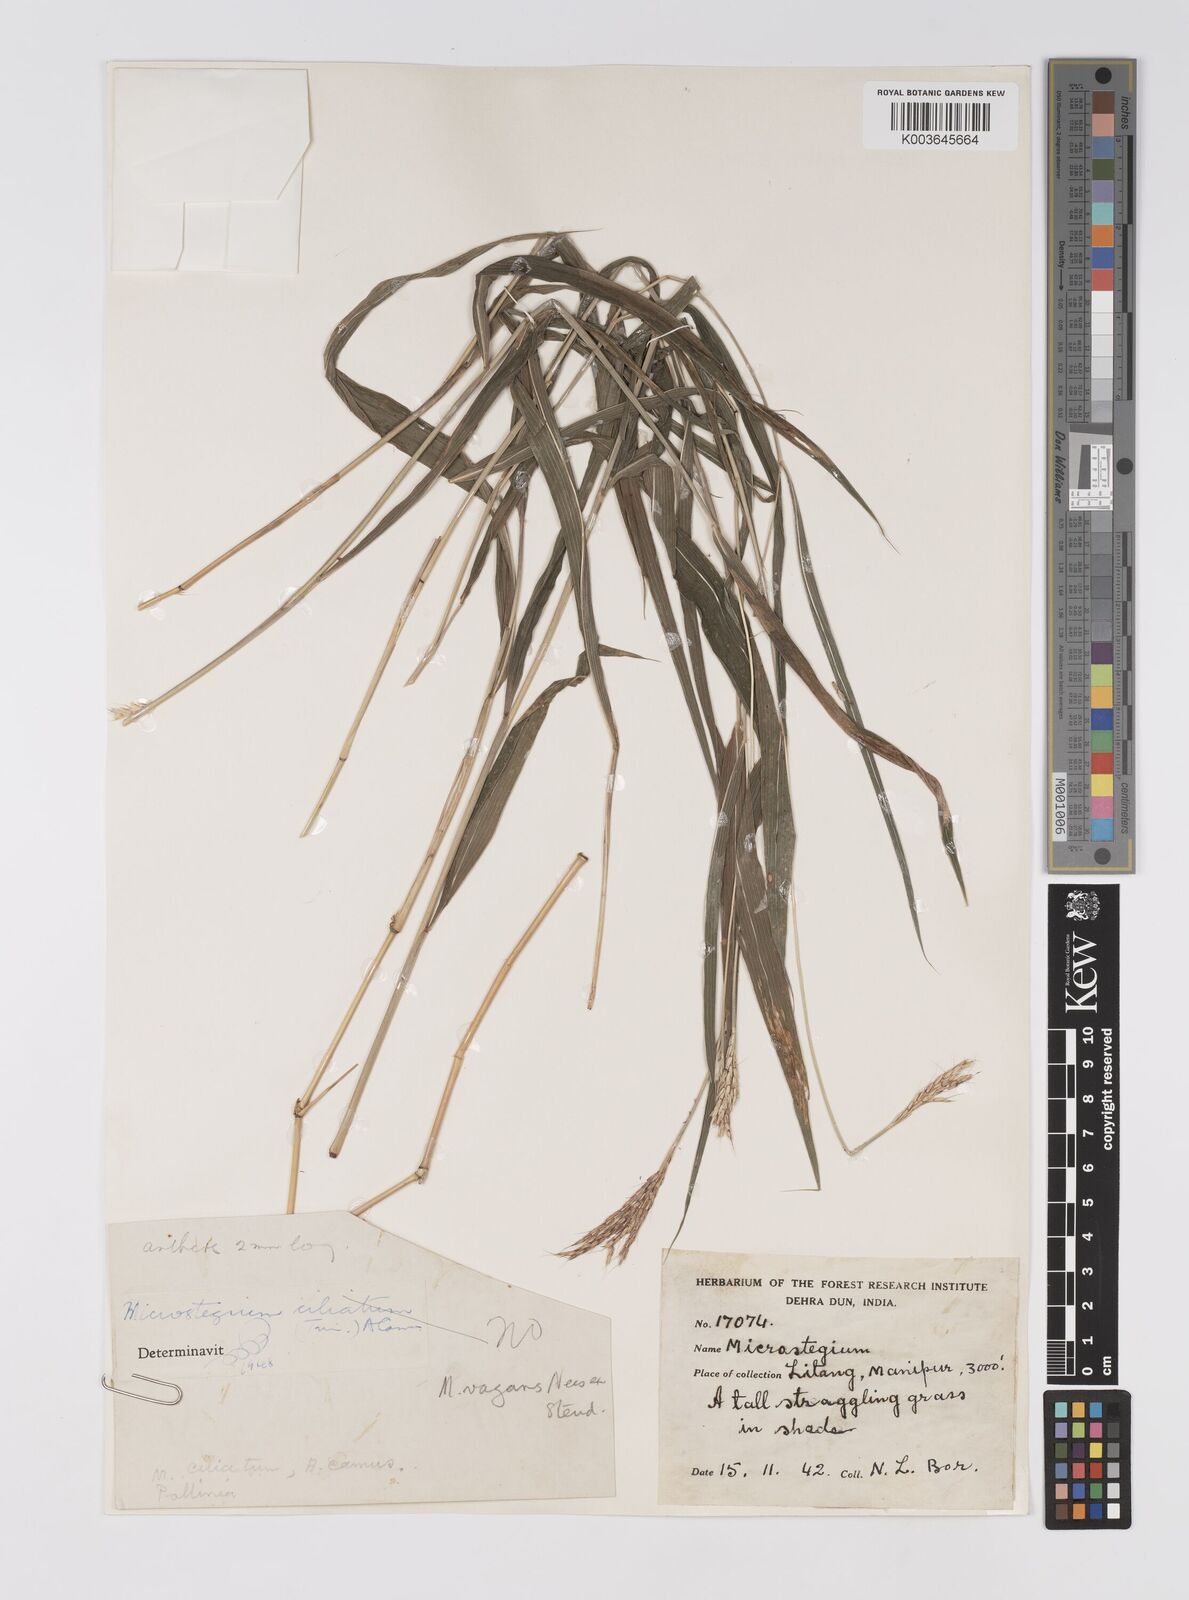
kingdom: Plantae
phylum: Tracheophyta
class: Liliopsida
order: Poales
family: Poaceae
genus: Microstegium
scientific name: Microstegium fasciculatum
